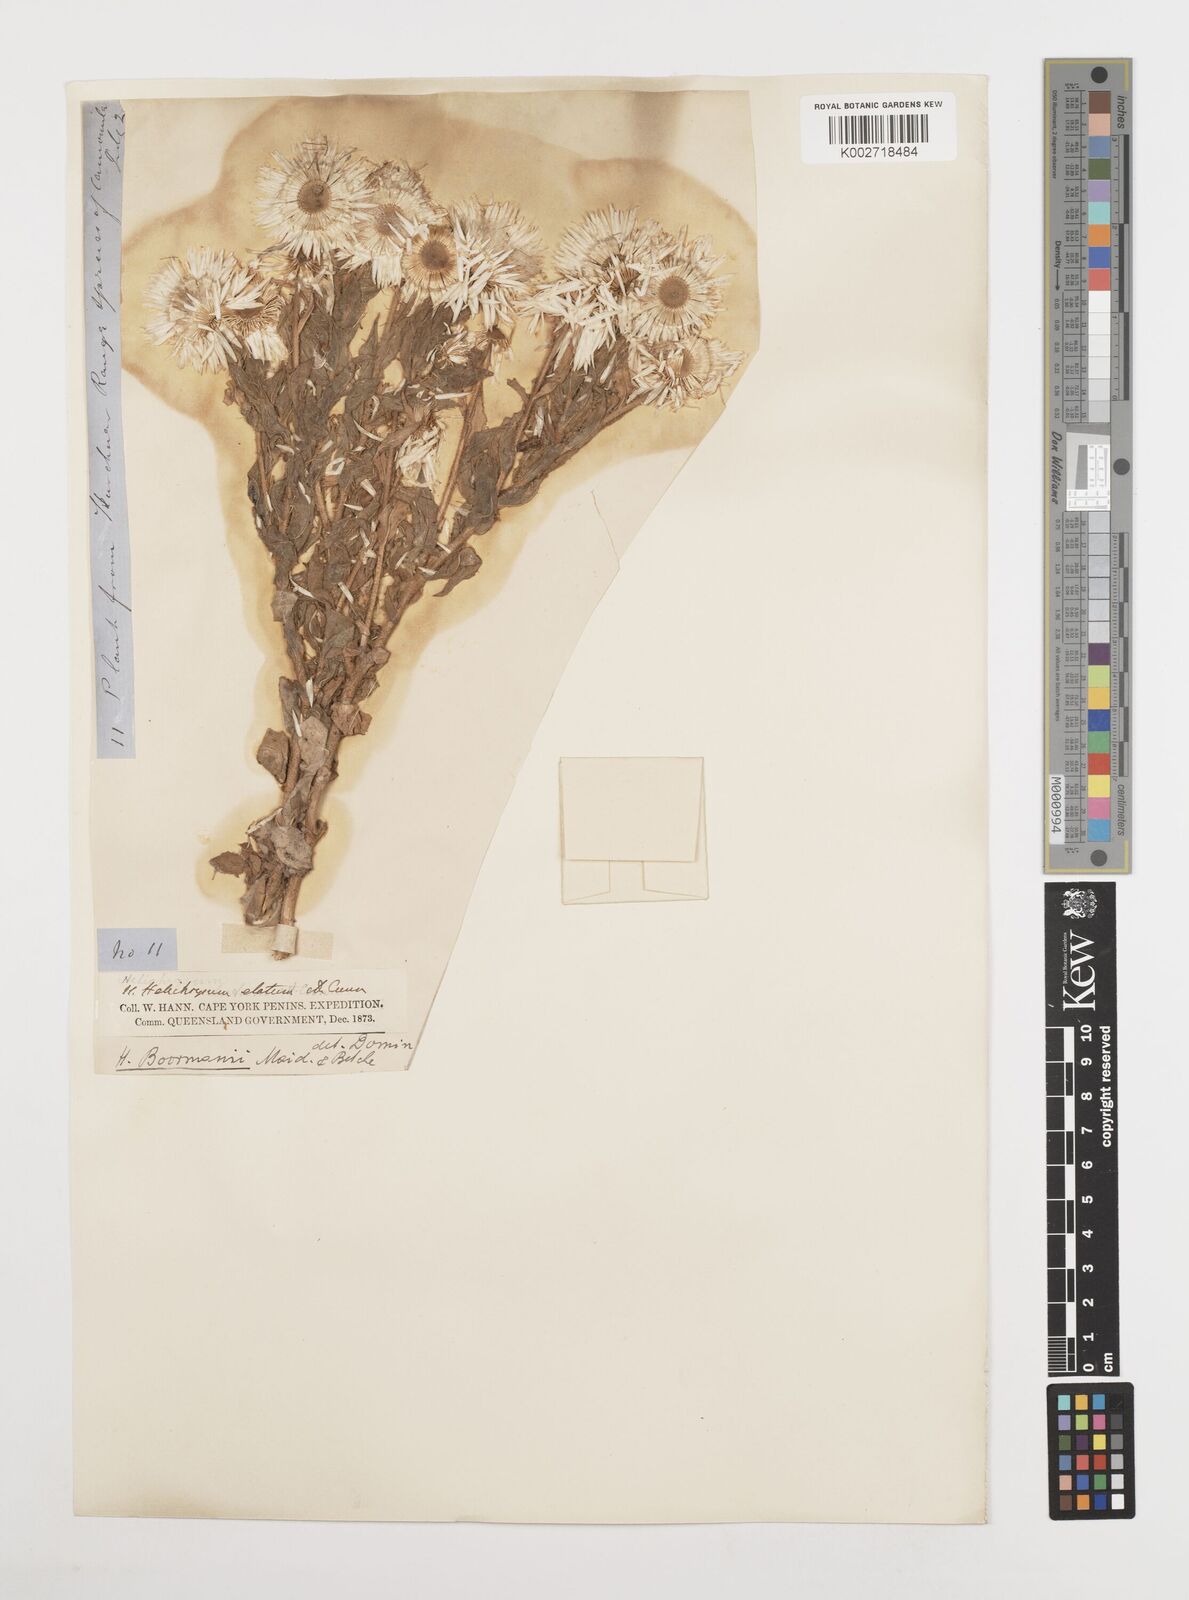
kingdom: Plantae
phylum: Tracheophyta
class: Magnoliopsida
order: Asterales
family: Asteraceae
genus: Leucozoma
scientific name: Leucozoma boormanii
